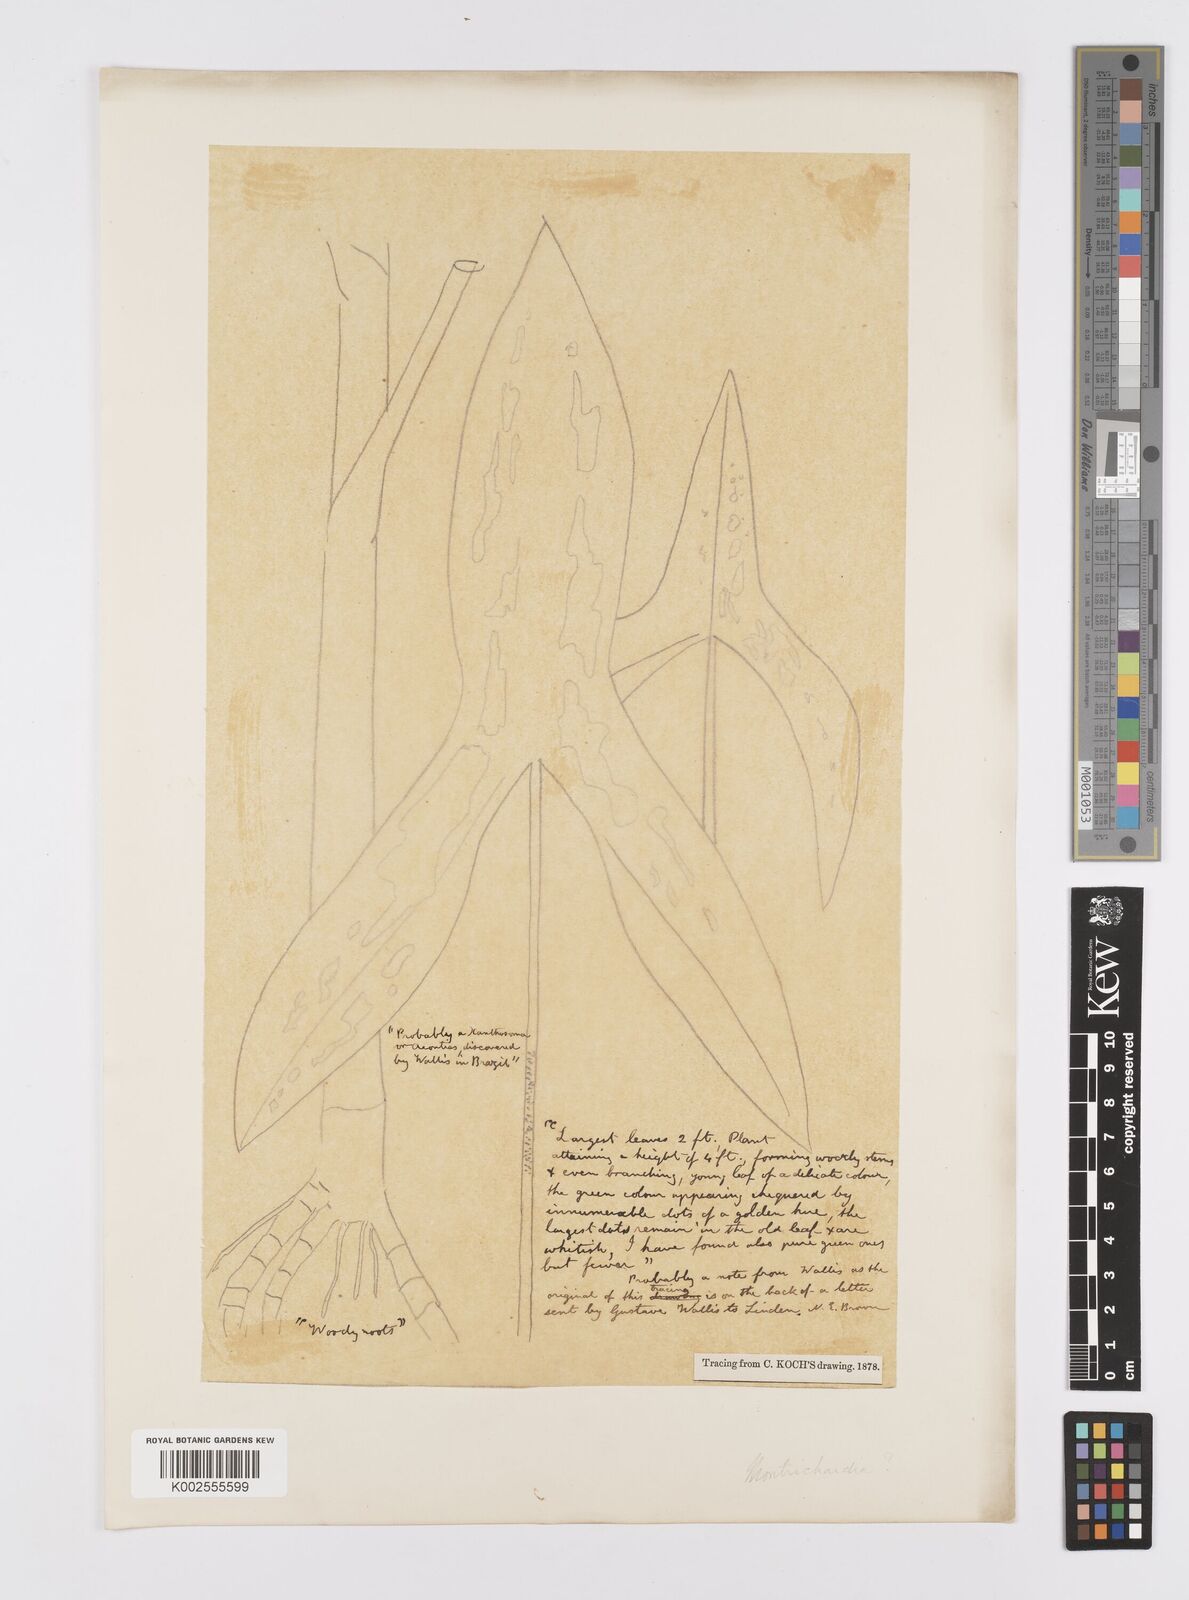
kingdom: Plantae
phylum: Tracheophyta
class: Liliopsida
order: Alismatales
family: Araceae
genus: Urospatha
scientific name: Urospatha
